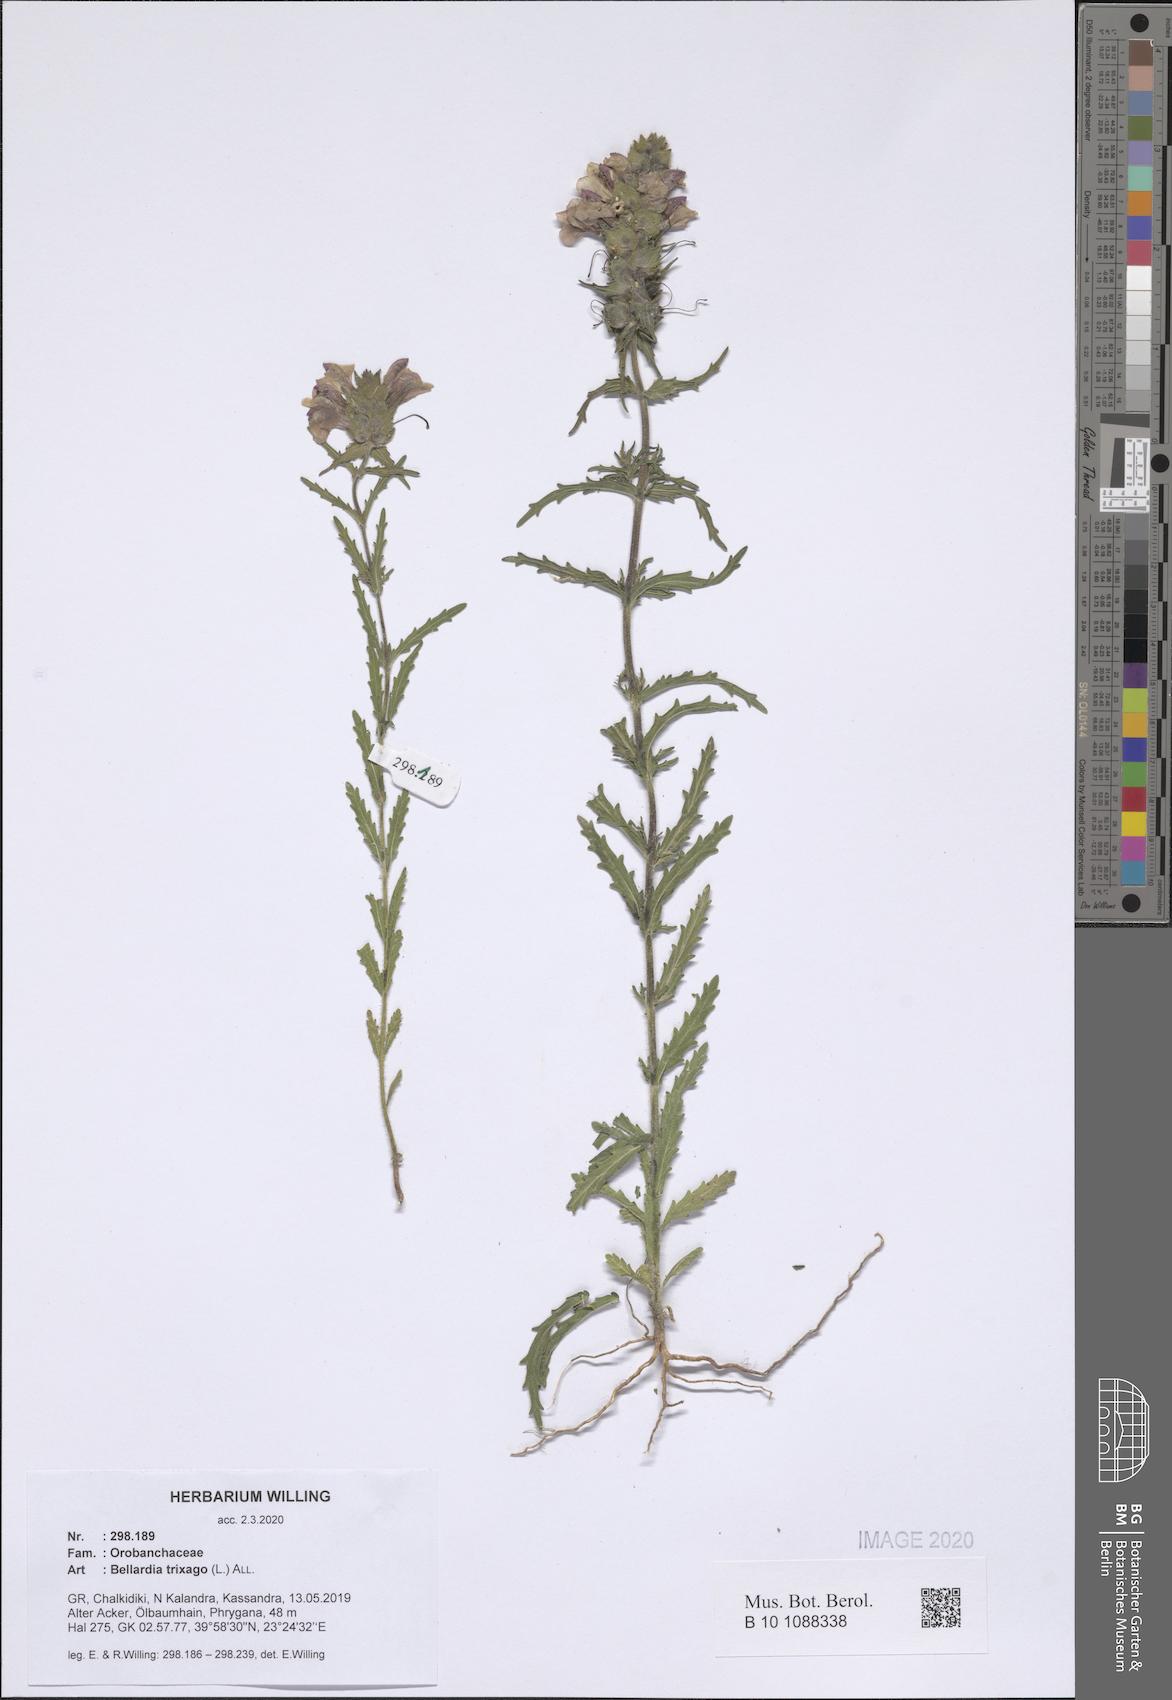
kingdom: Plantae
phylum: Tracheophyta
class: Magnoliopsida
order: Lamiales
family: Orobanchaceae
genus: Bellardia
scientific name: Bellardia trixago
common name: Mediterranean lineseed
